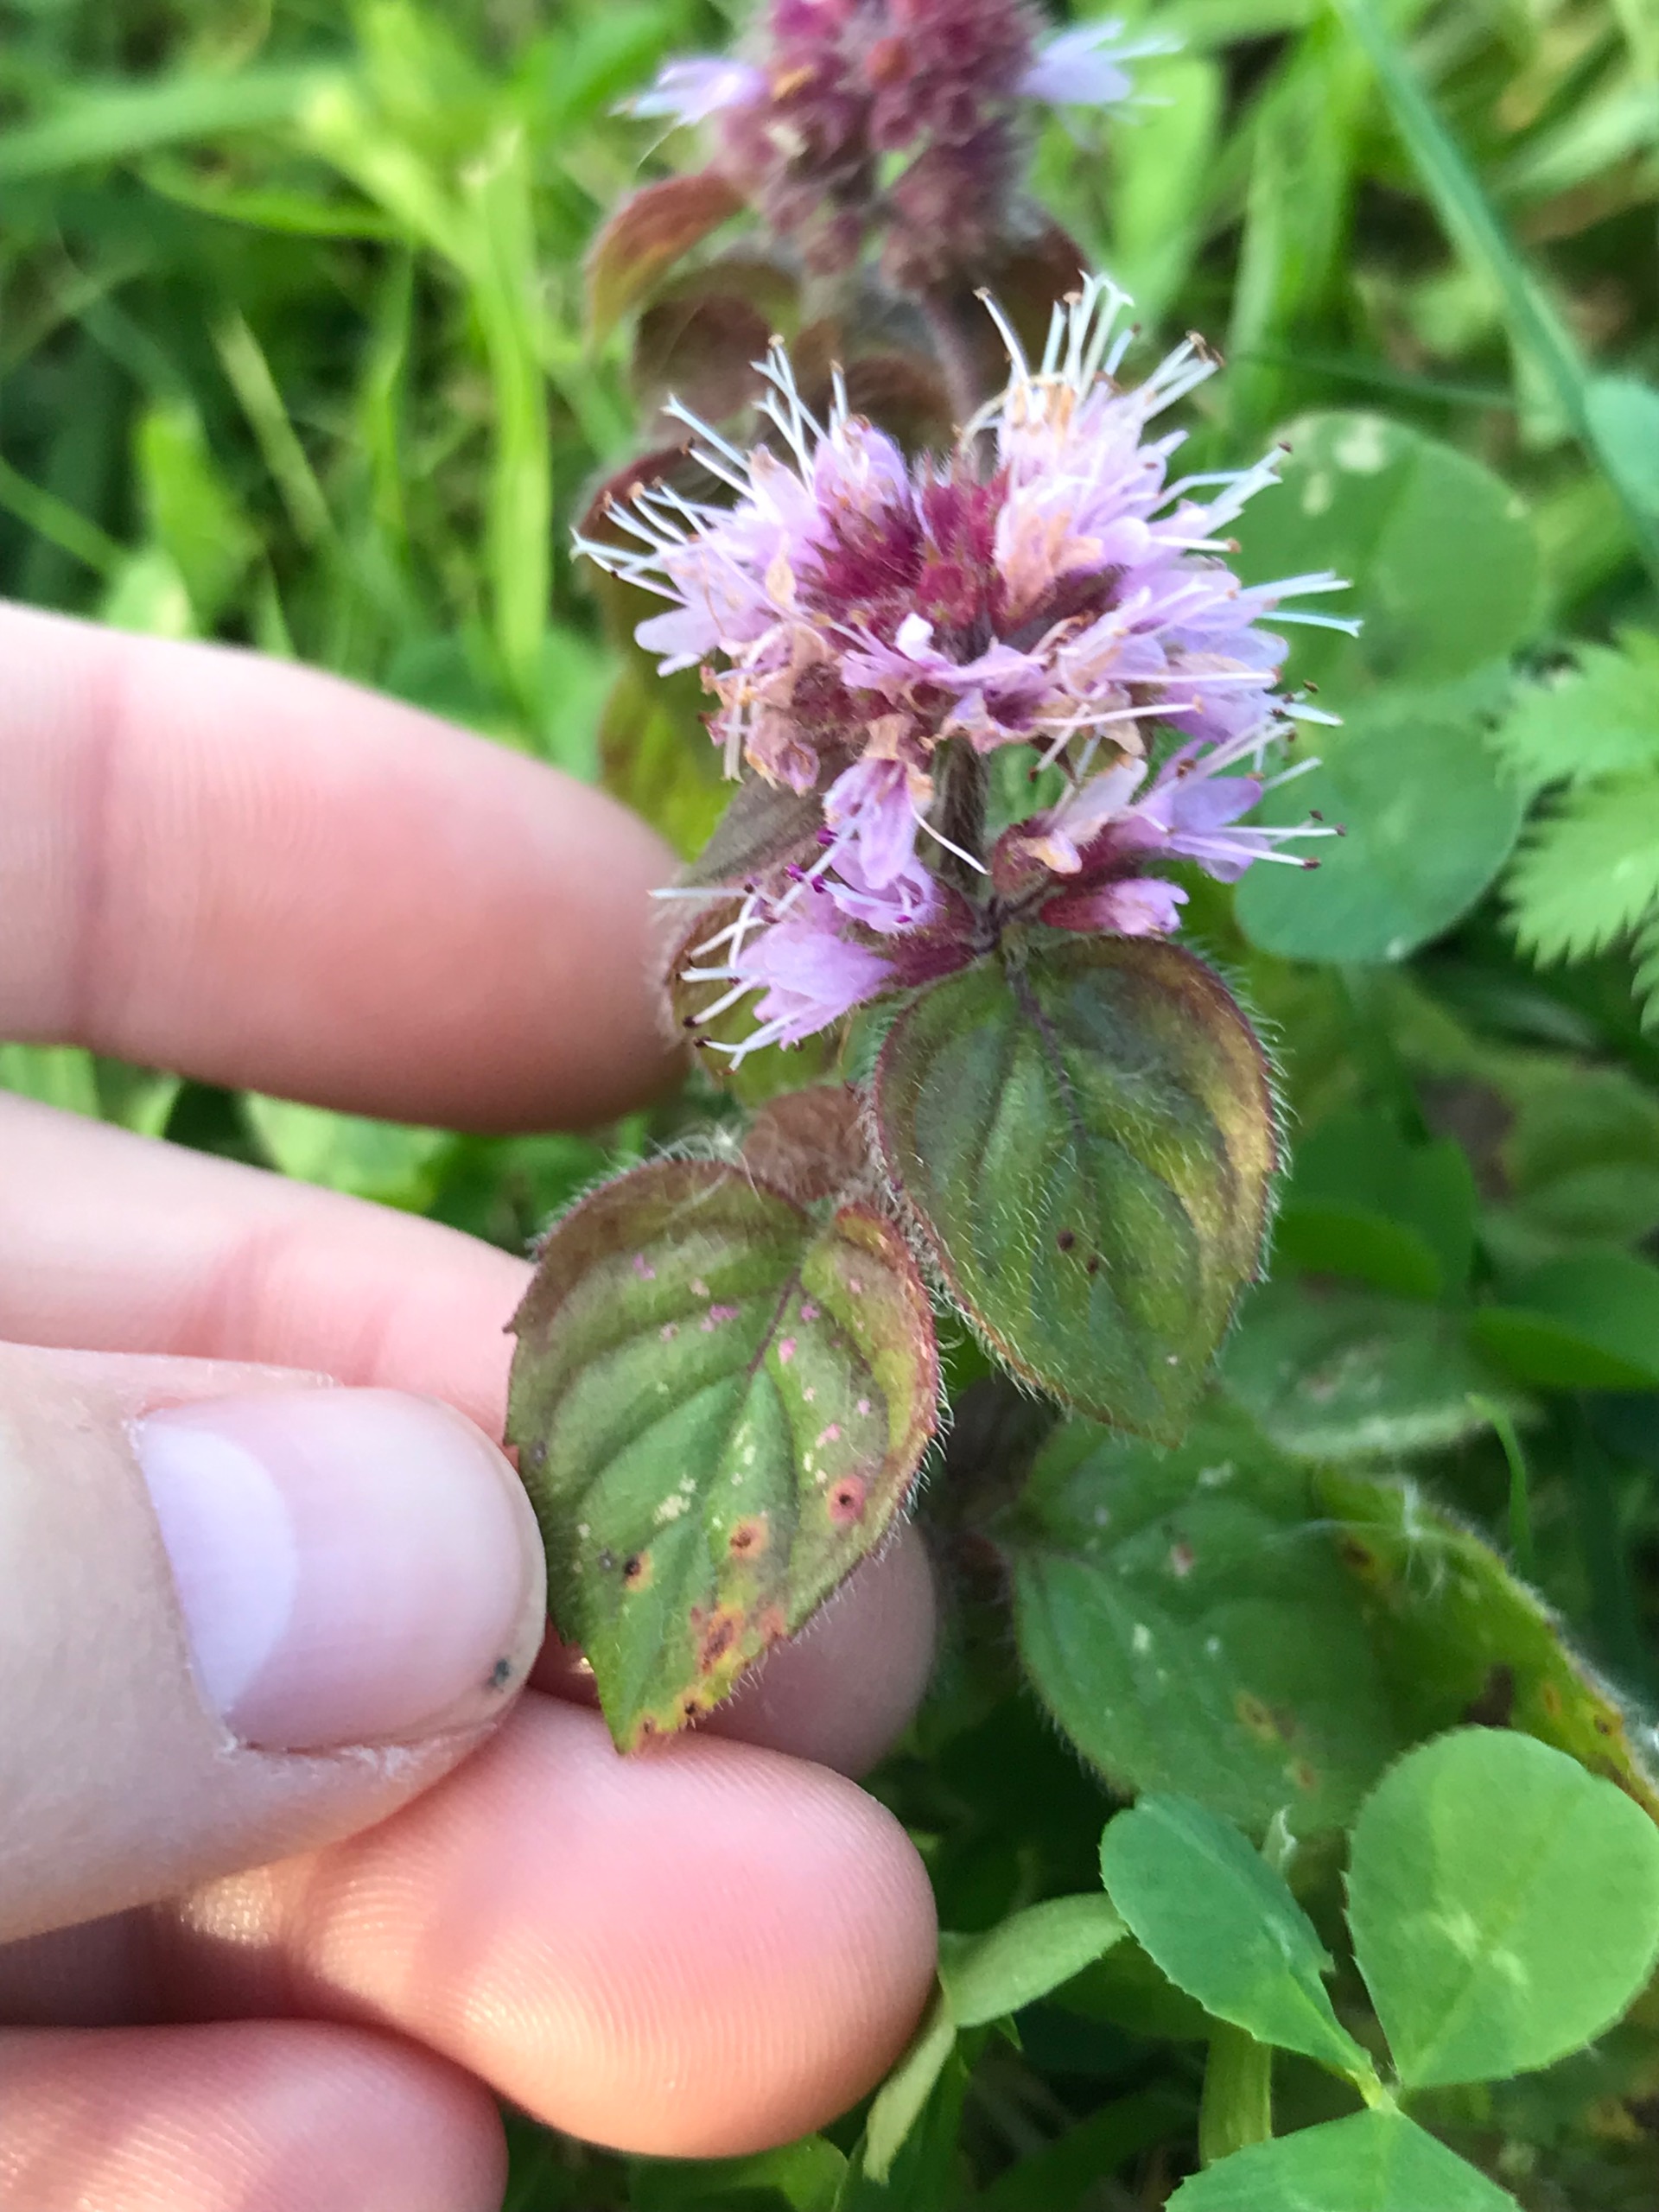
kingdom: Plantae
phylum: Tracheophyta
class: Magnoliopsida
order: Lamiales
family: Lamiaceae
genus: Mentha
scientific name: Mentha aquatica
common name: Vand-mynte
